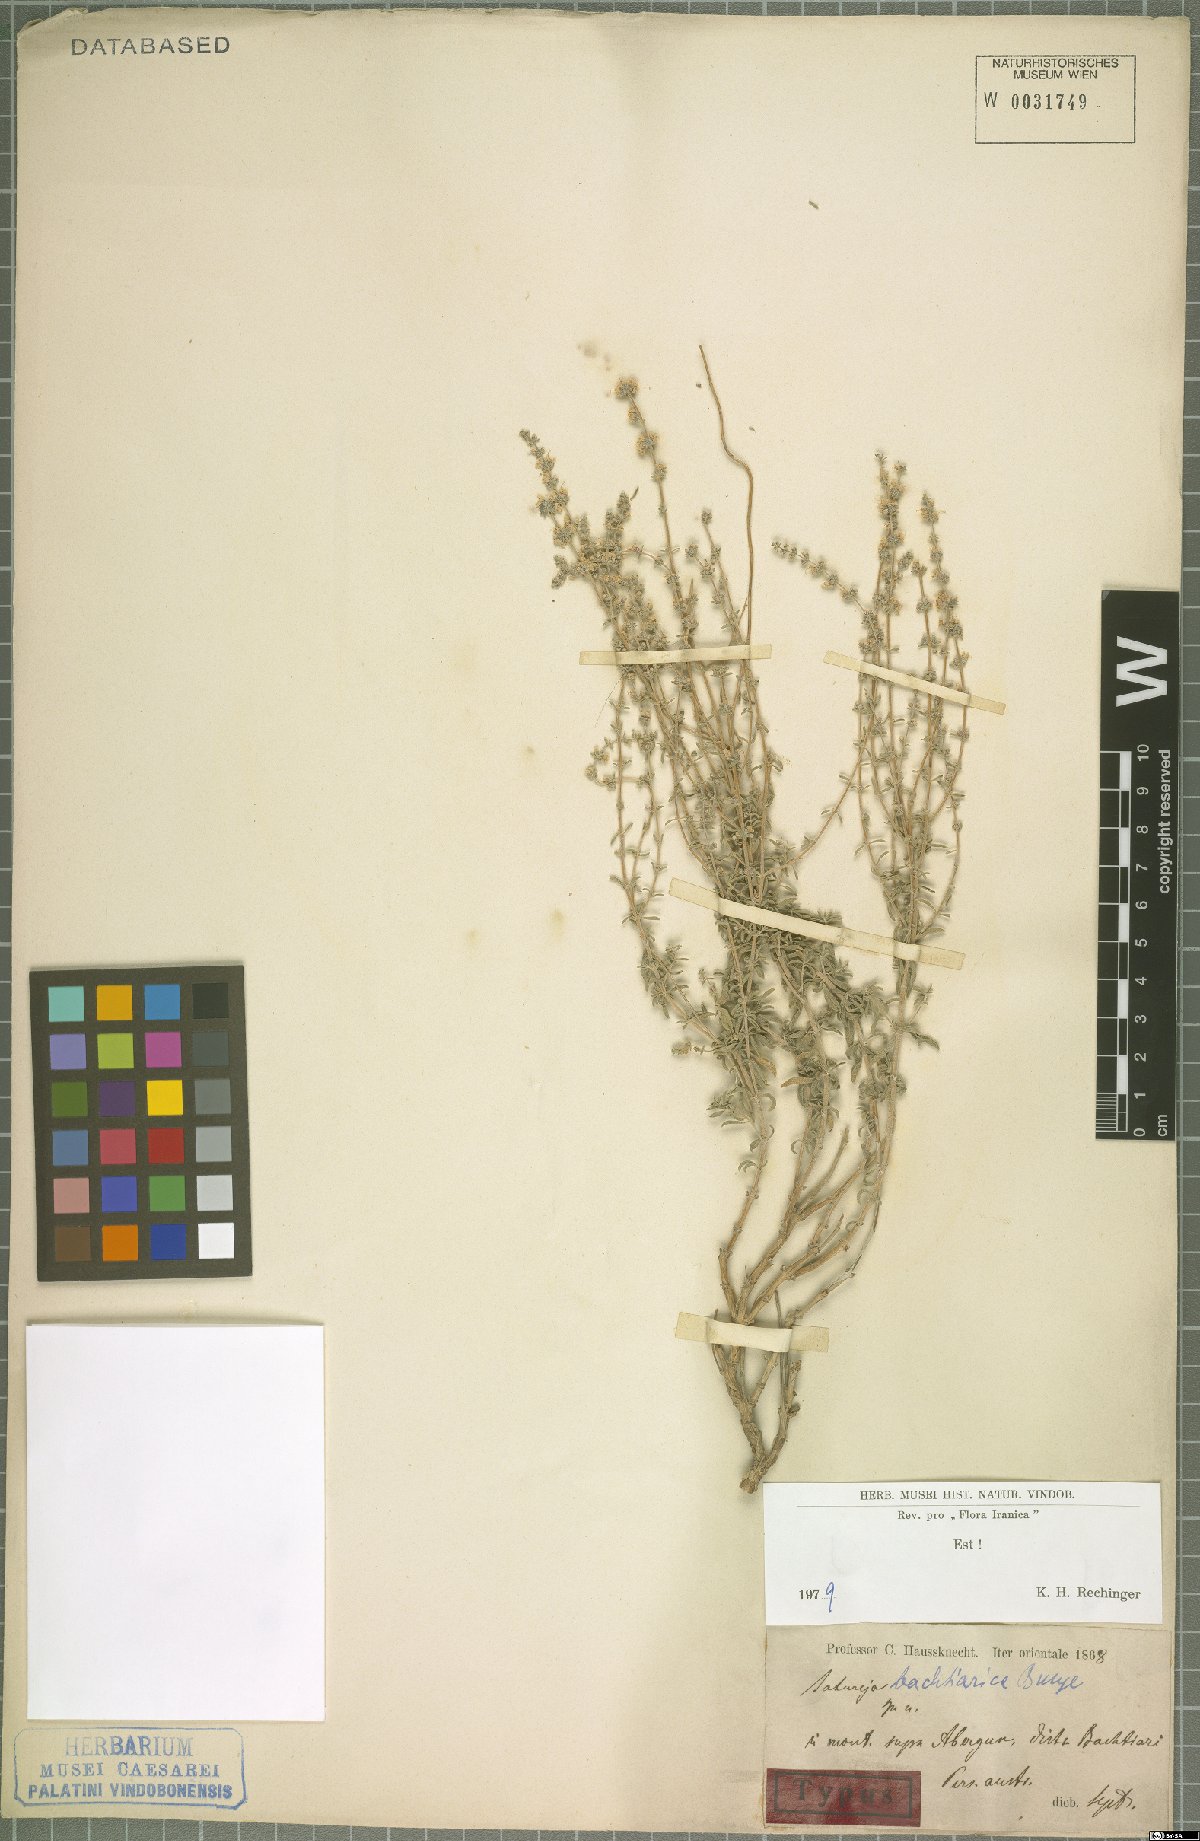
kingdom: Plantae
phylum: Tracheophyta
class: Magnoliopsida
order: Lamiales
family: Lamiaceae
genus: Satureja
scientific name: Satureja bachtiarica
